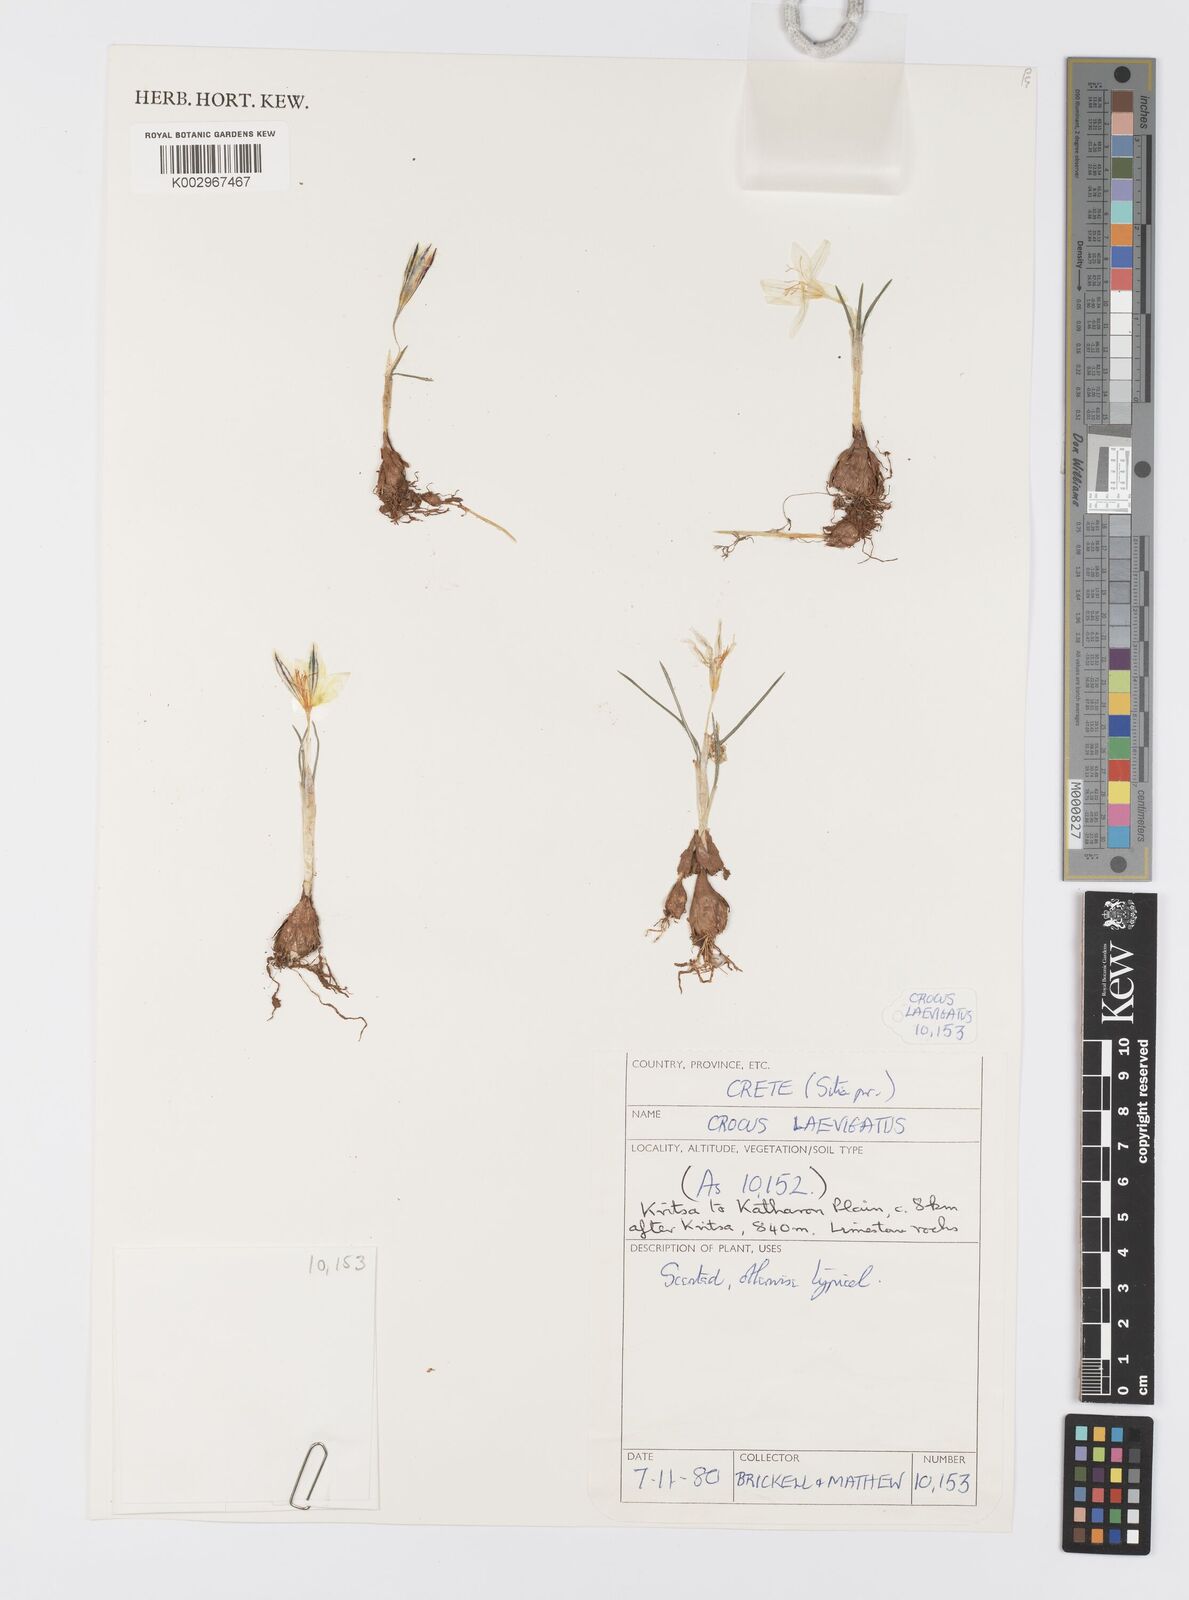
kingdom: Plantae
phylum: Tracheophyta
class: Liliopsida
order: Asparagales
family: Iridaceae
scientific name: Iridaceae
